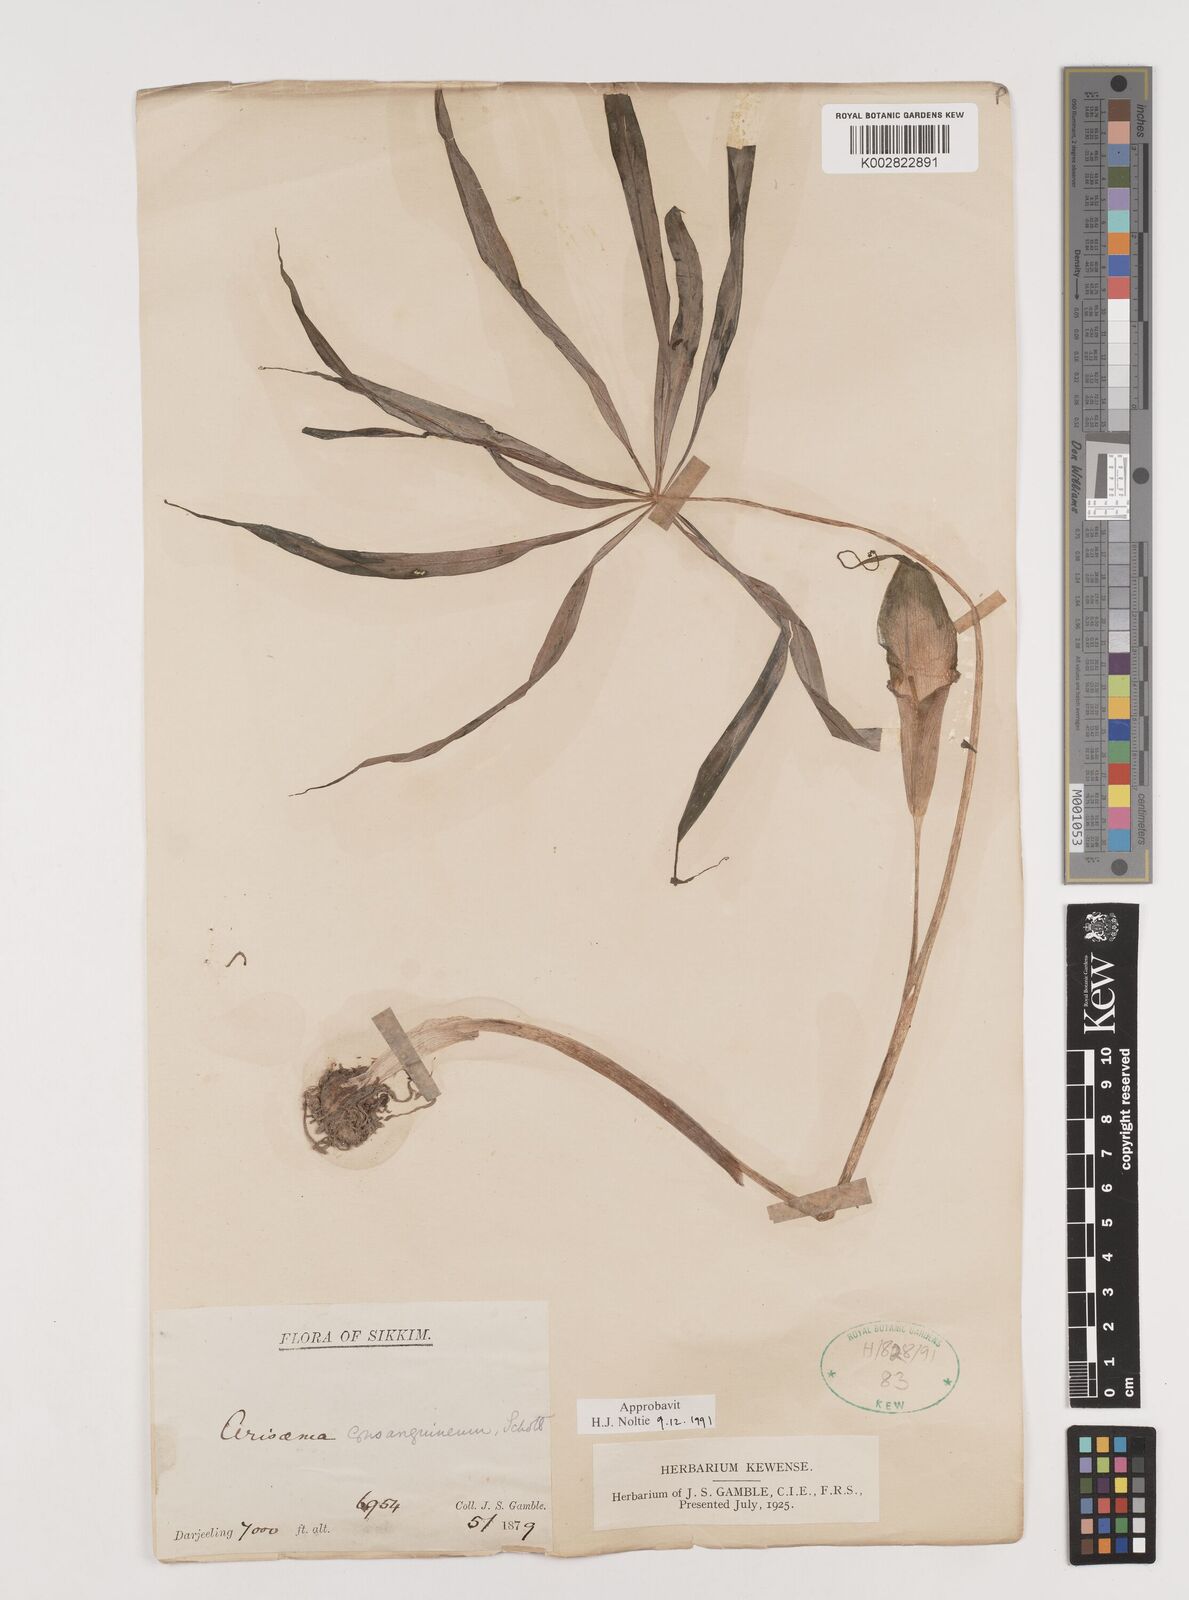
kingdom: Plantae
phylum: Tracheophyta
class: Liliopsida
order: Alismatales
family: Araceae
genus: Arisaema
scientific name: Arisaema erubescens
